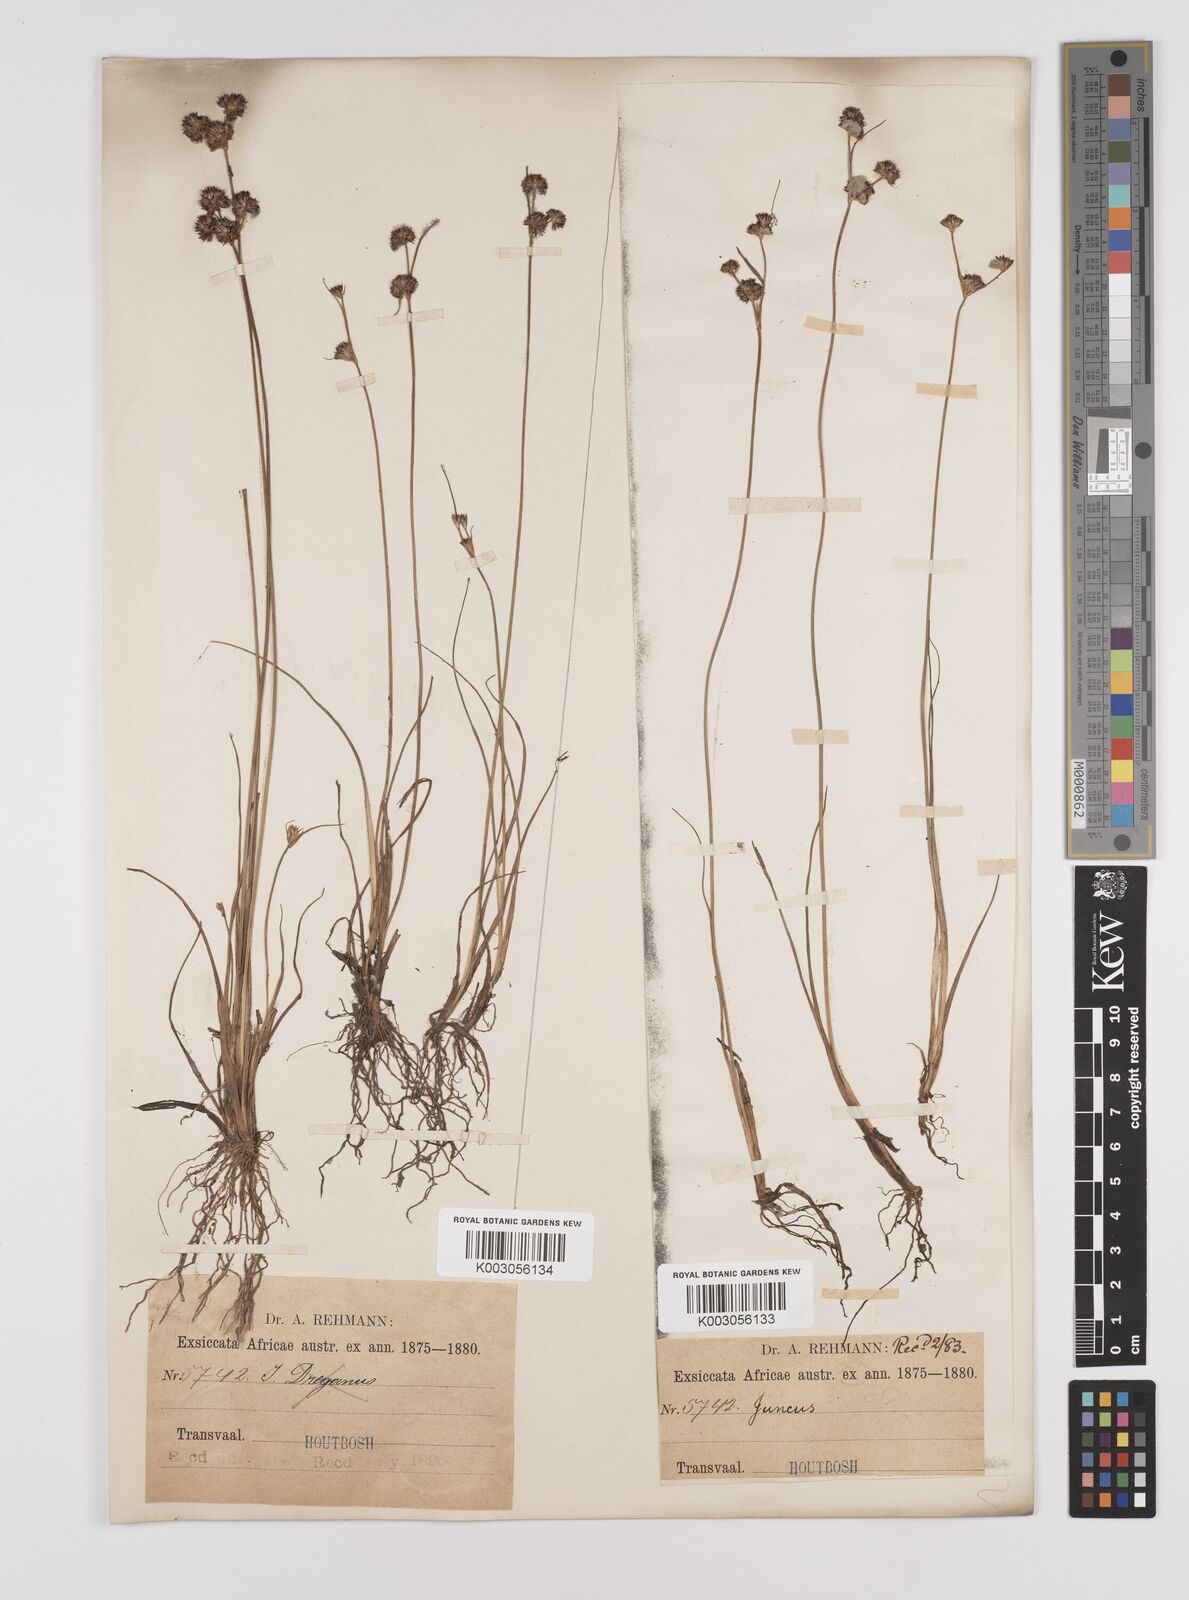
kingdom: Plantae
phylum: Tracheophyta
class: Liliopsida
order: Poales
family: Juncaceae
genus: Juncus
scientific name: Juncus
